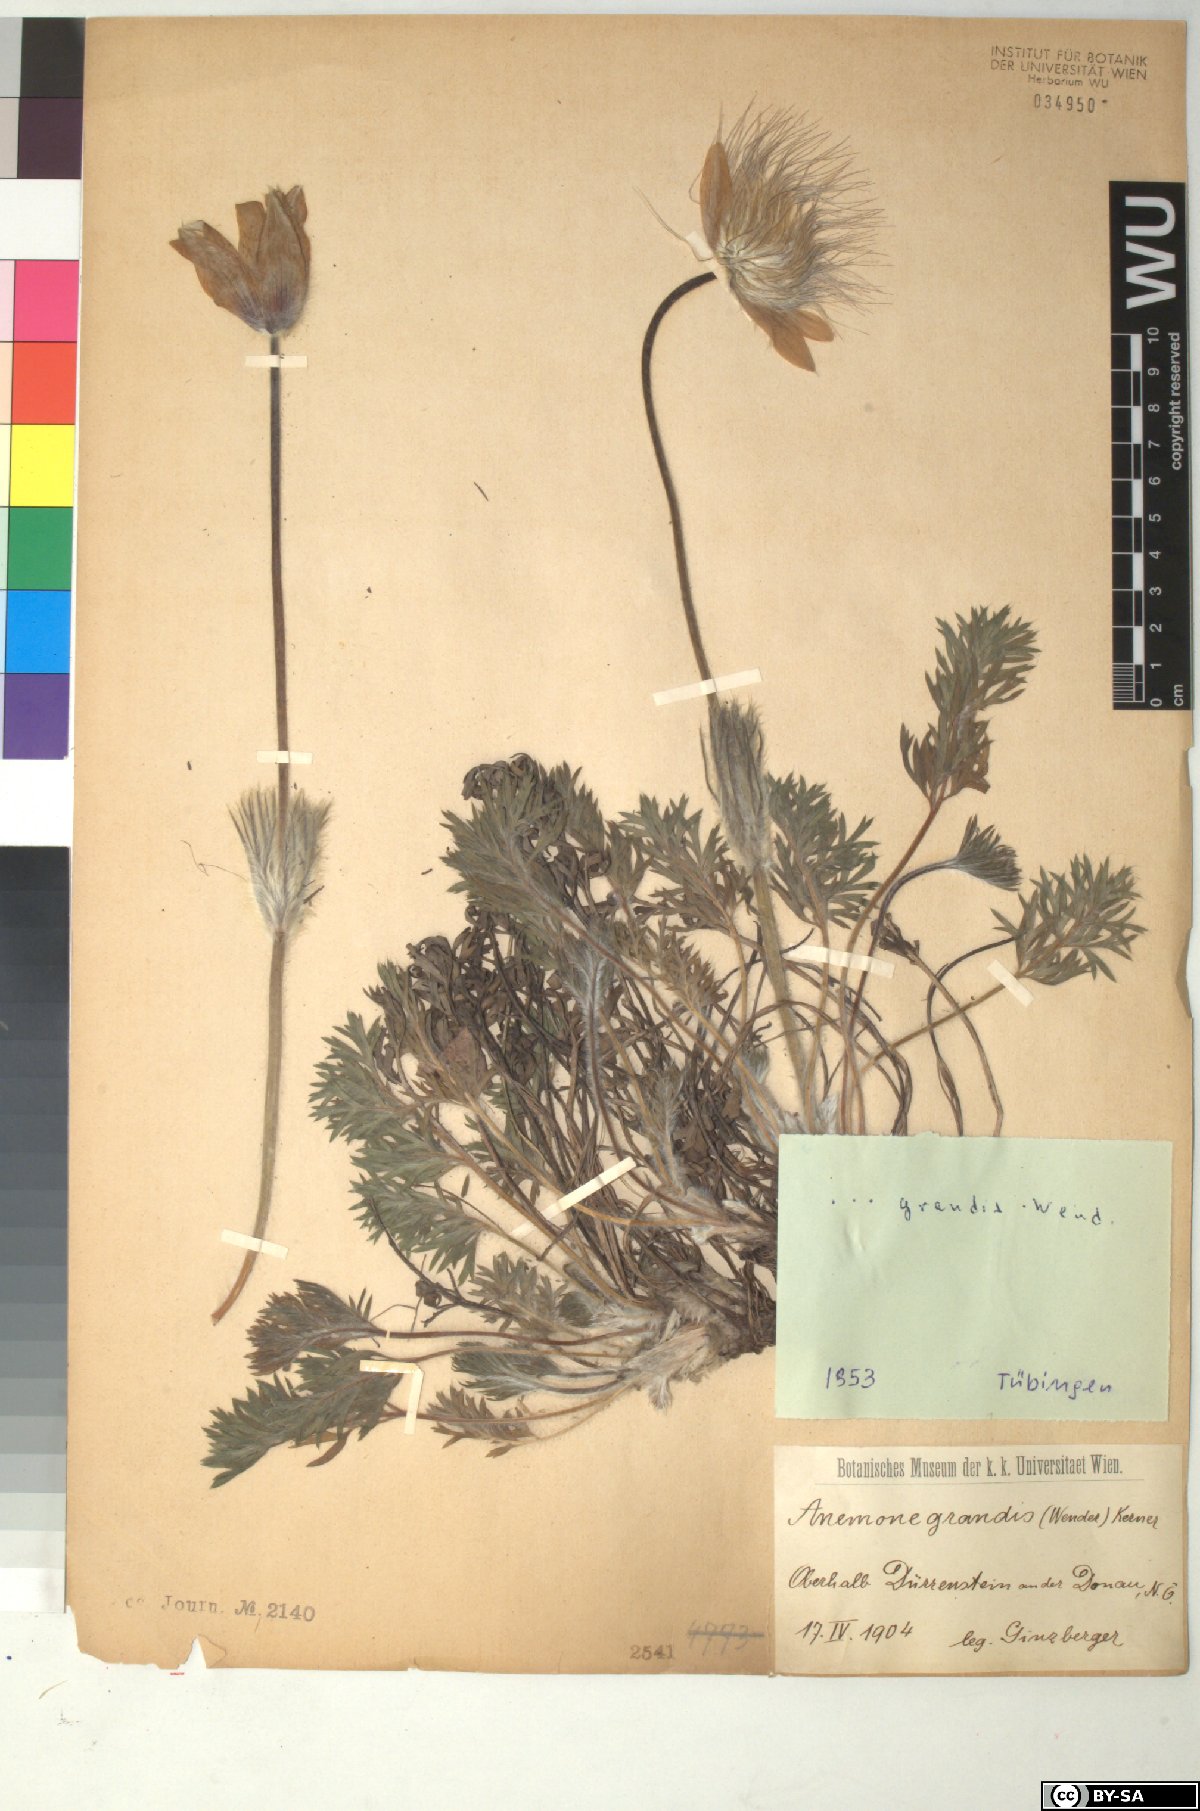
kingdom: Plantae
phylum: Tracheophyta
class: Magnoliopsida
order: Ranunculales
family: Ranunculaceae
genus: Pulsatilla
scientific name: Pulsatilla grandis
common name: Greater pasque flower
